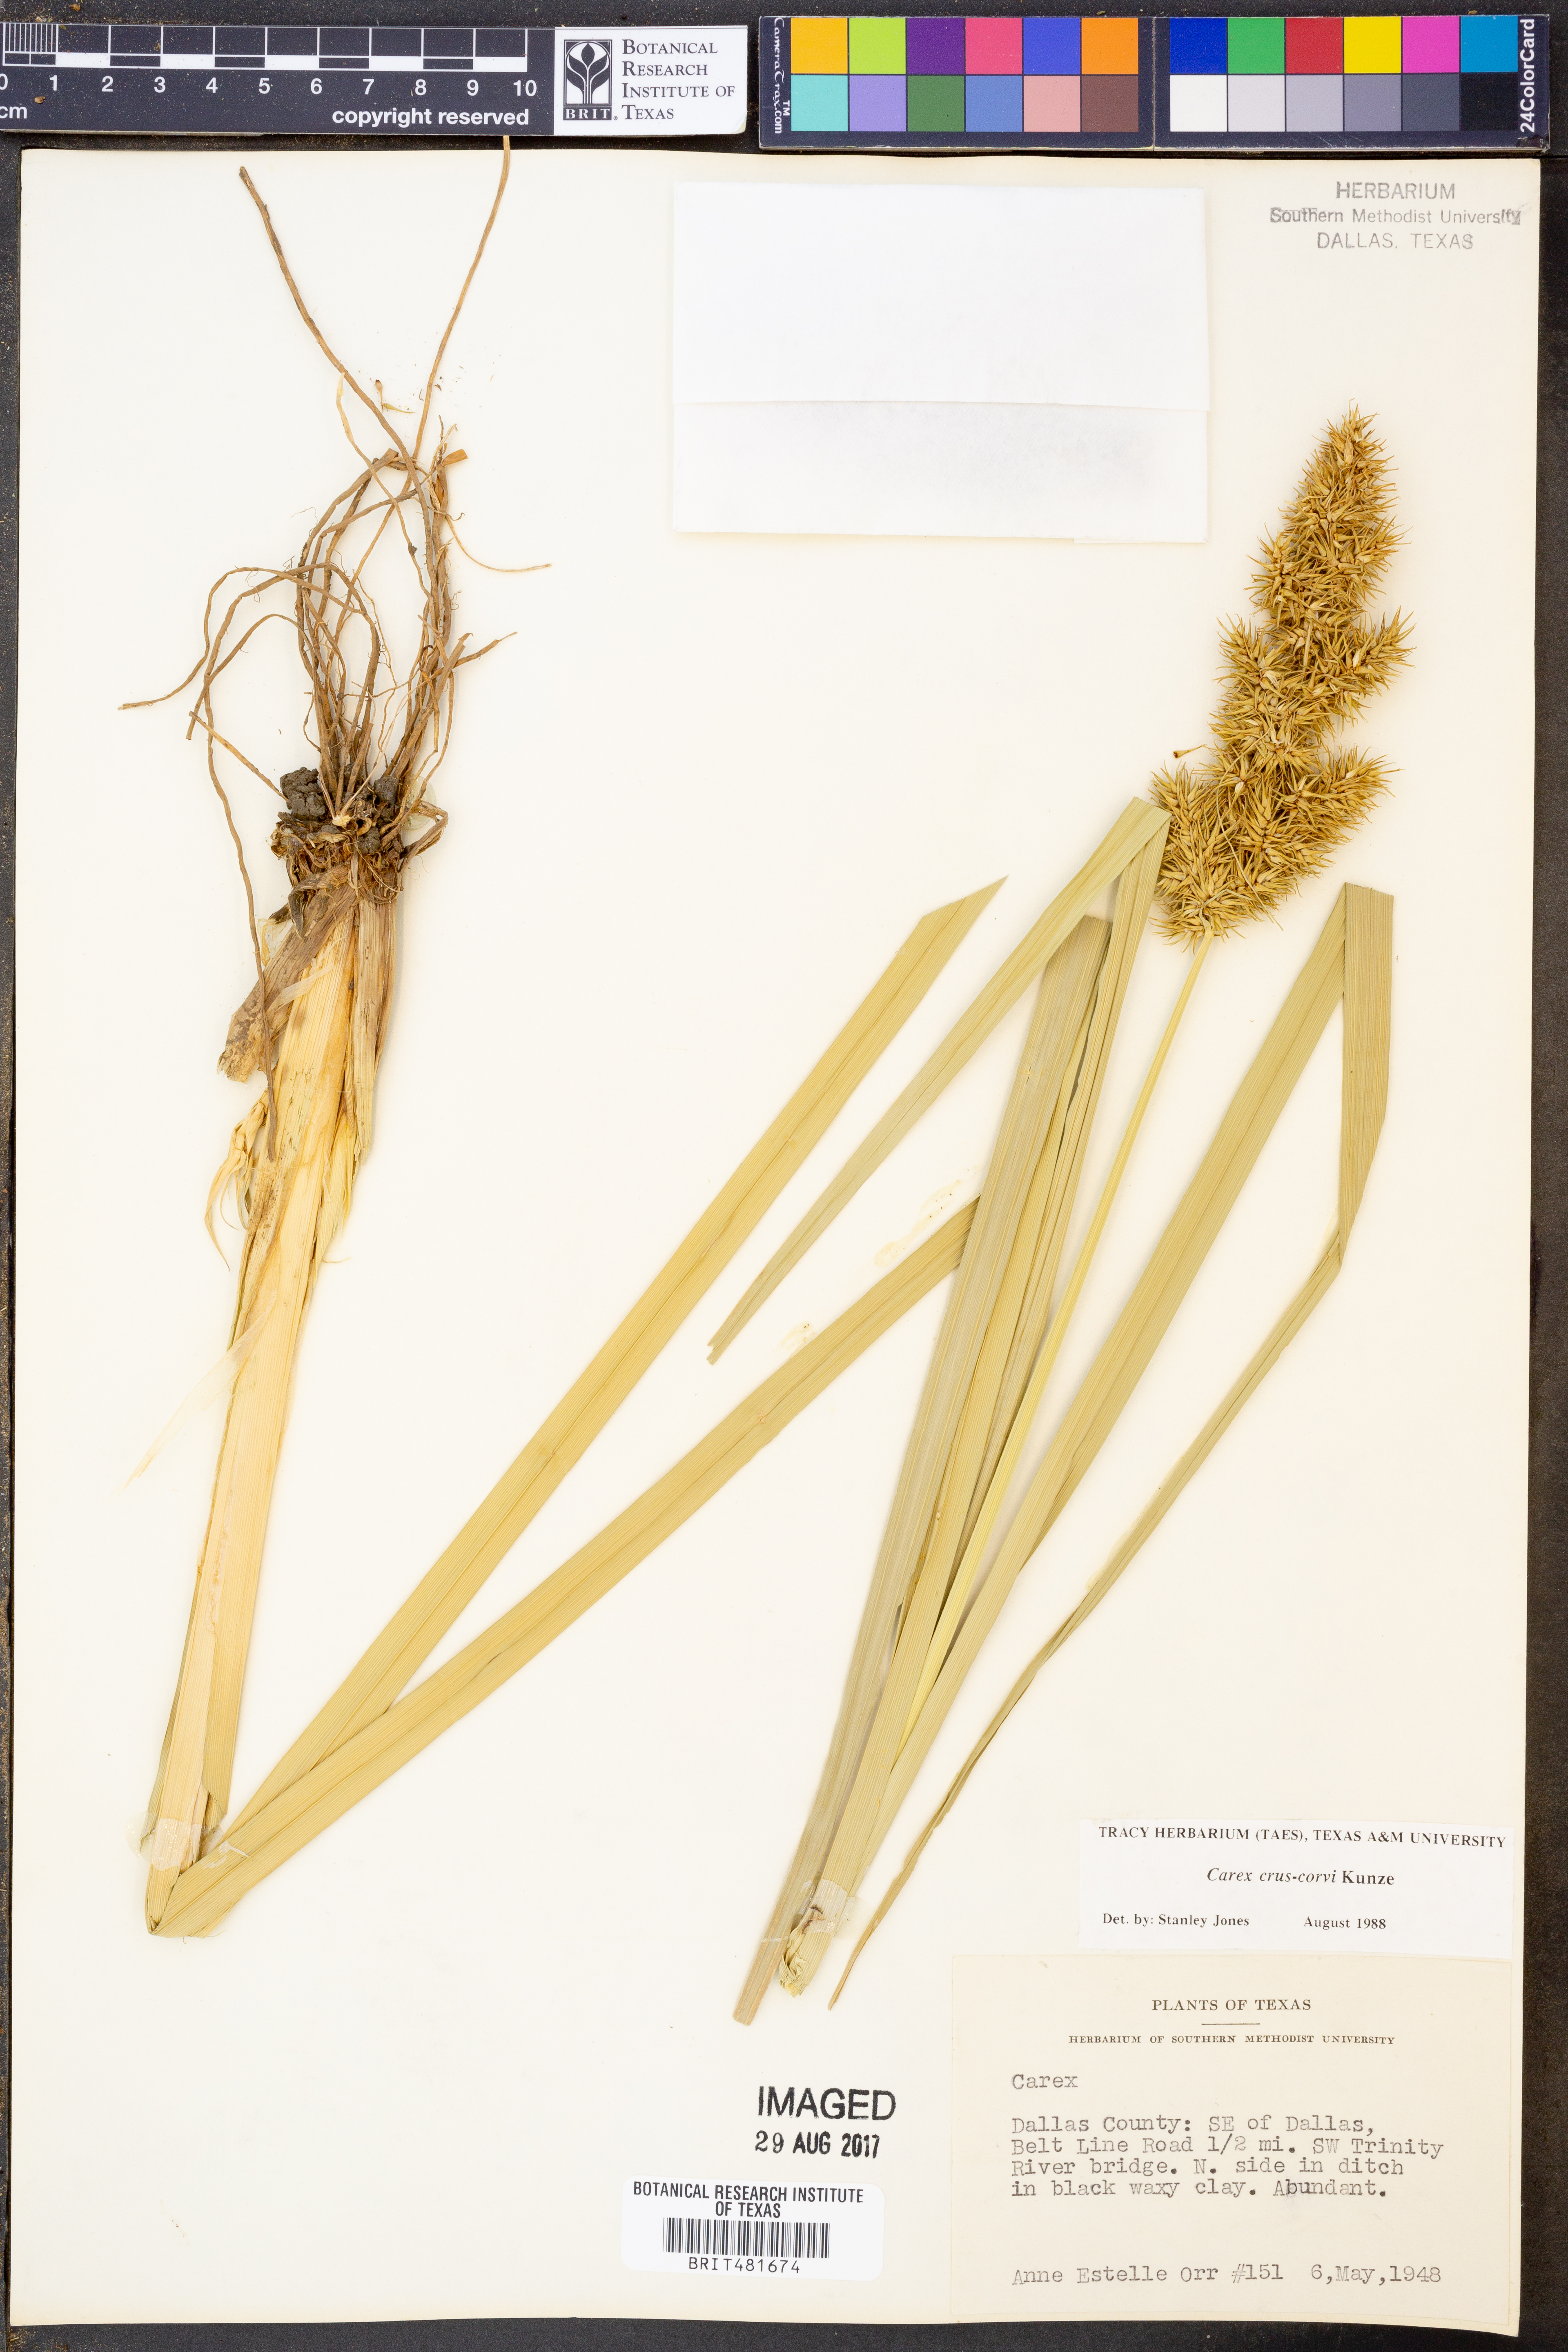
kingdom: Plantae
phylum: Tracheophyta
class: Liliopsida
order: Poales
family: Cyperaceae
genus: Carex
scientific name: Carex crus-corvi
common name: Crow-spur sedge
